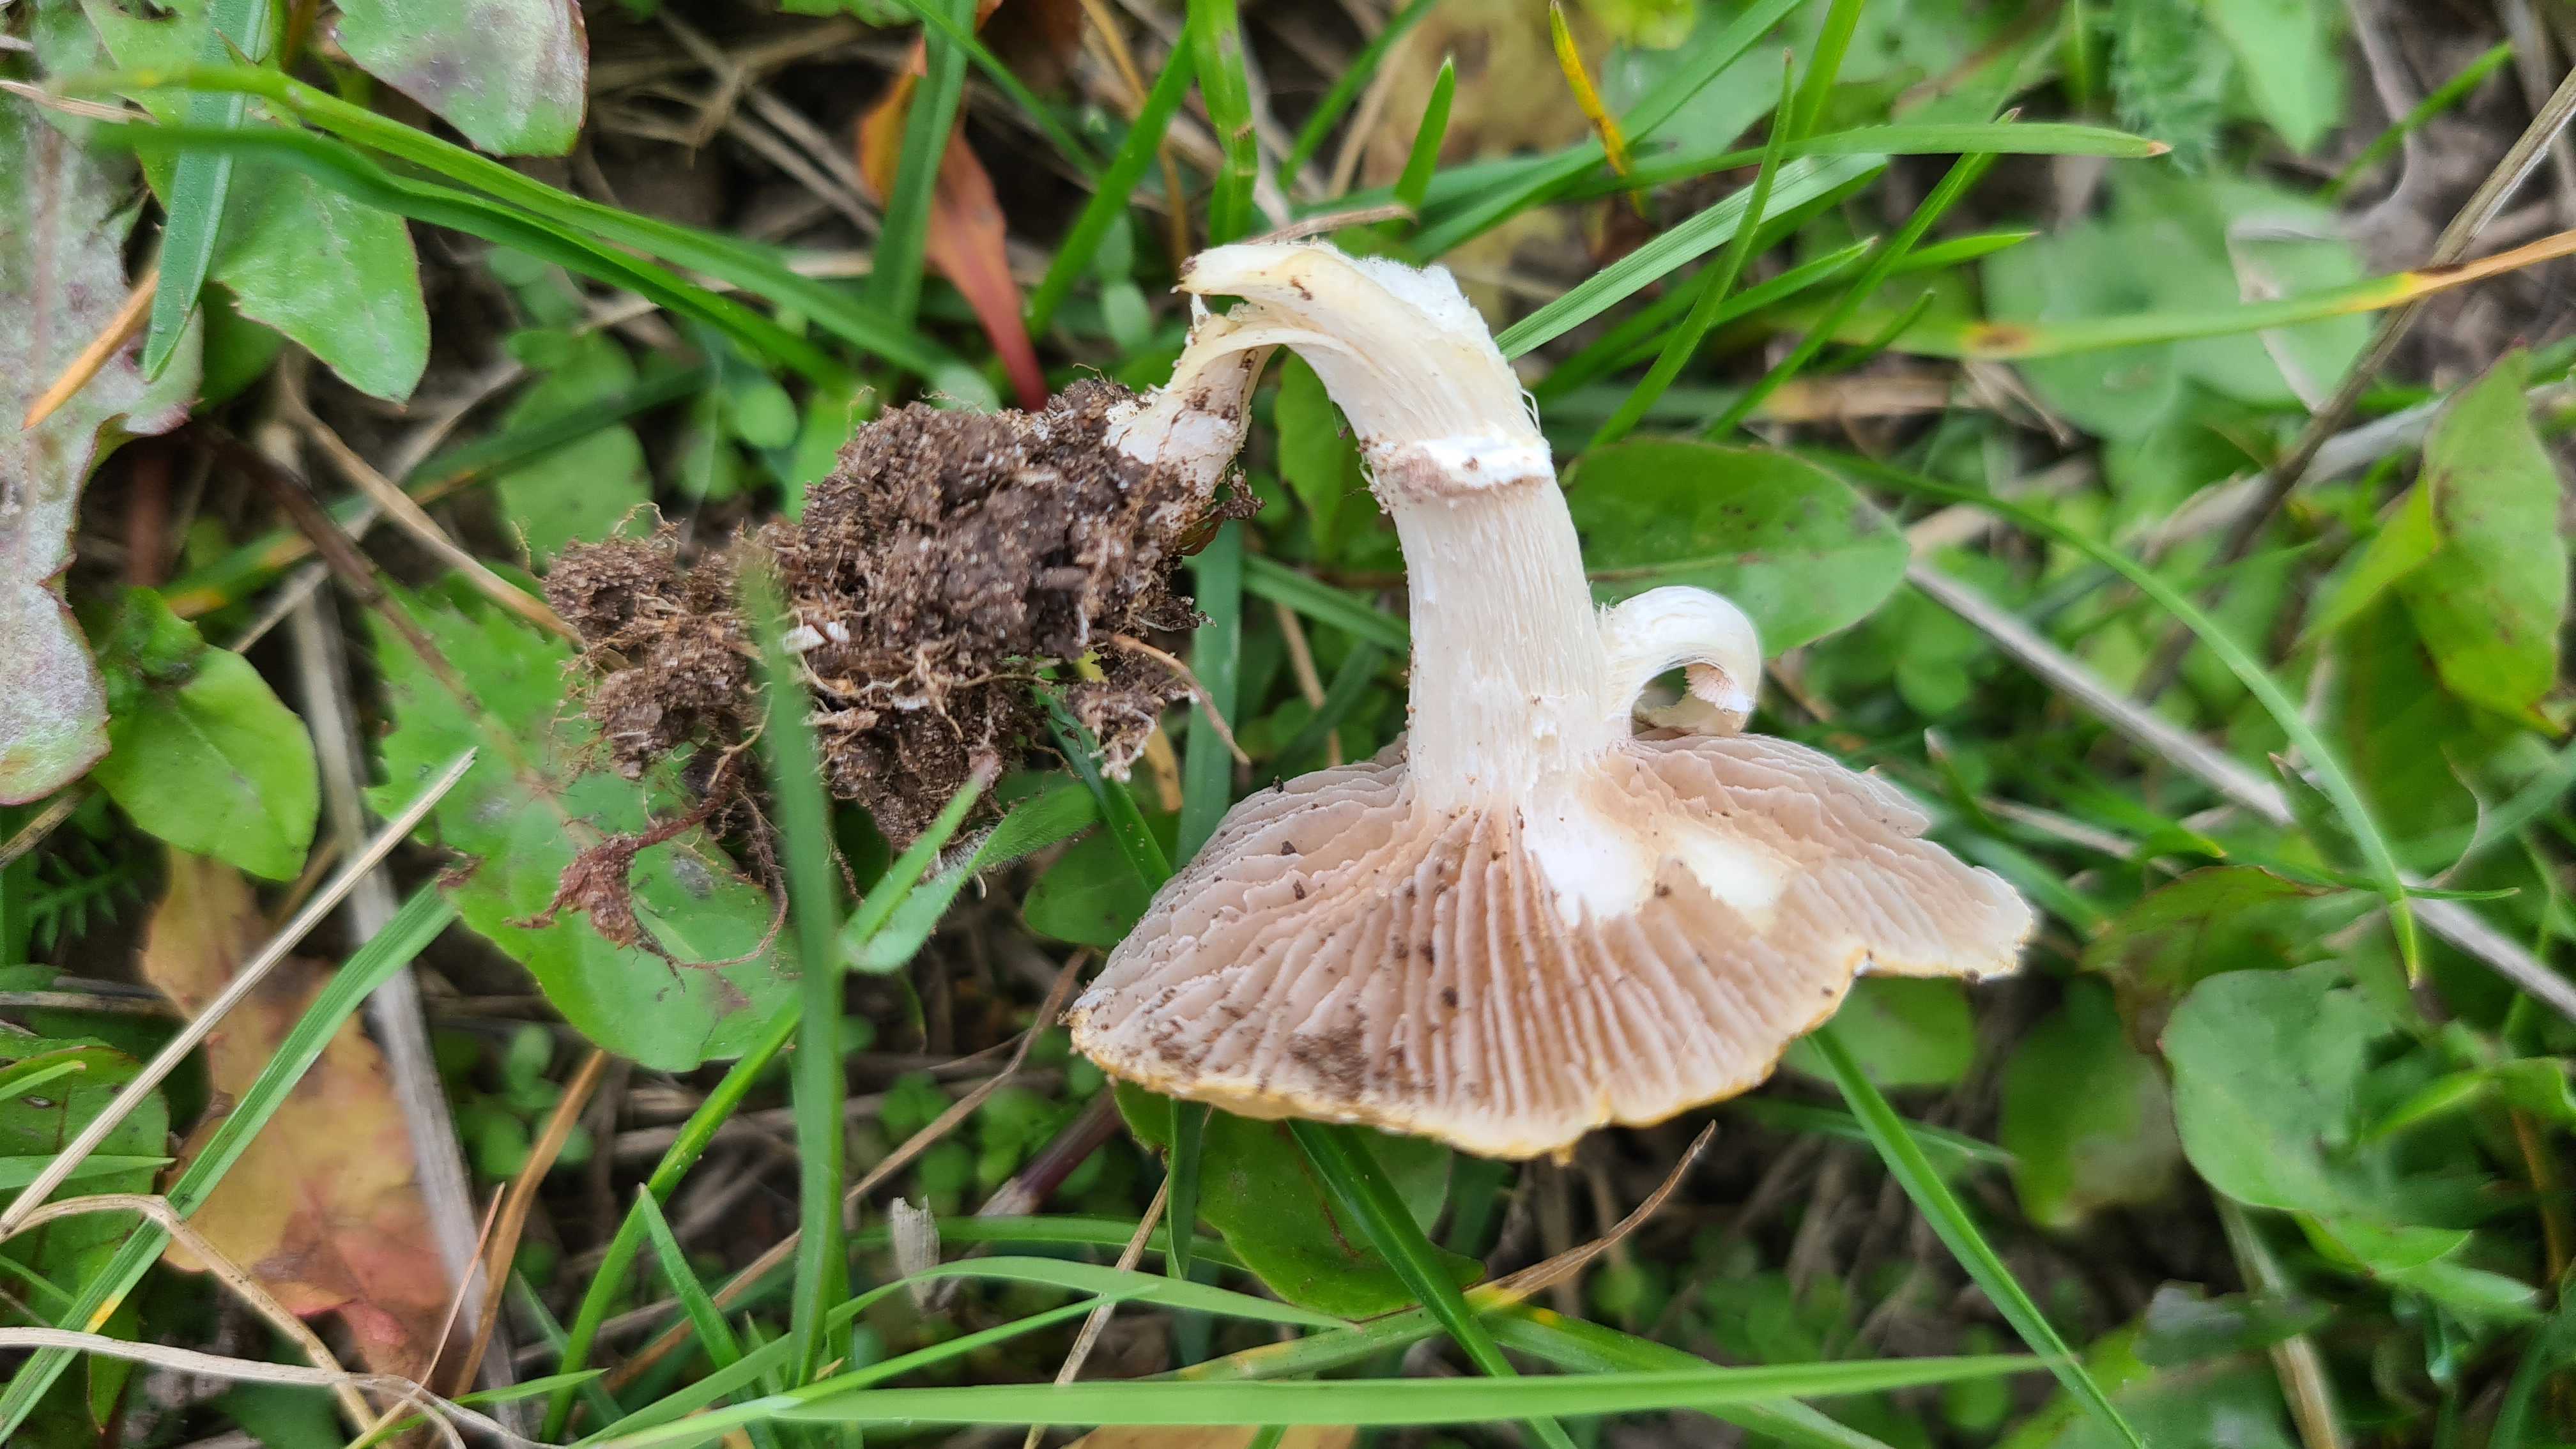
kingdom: Fungi
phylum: Basidiomycota
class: Agaricomycetes
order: Agaricales
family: Hymenogastraceae
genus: Psilocybe
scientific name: Psilocybe coronilla
